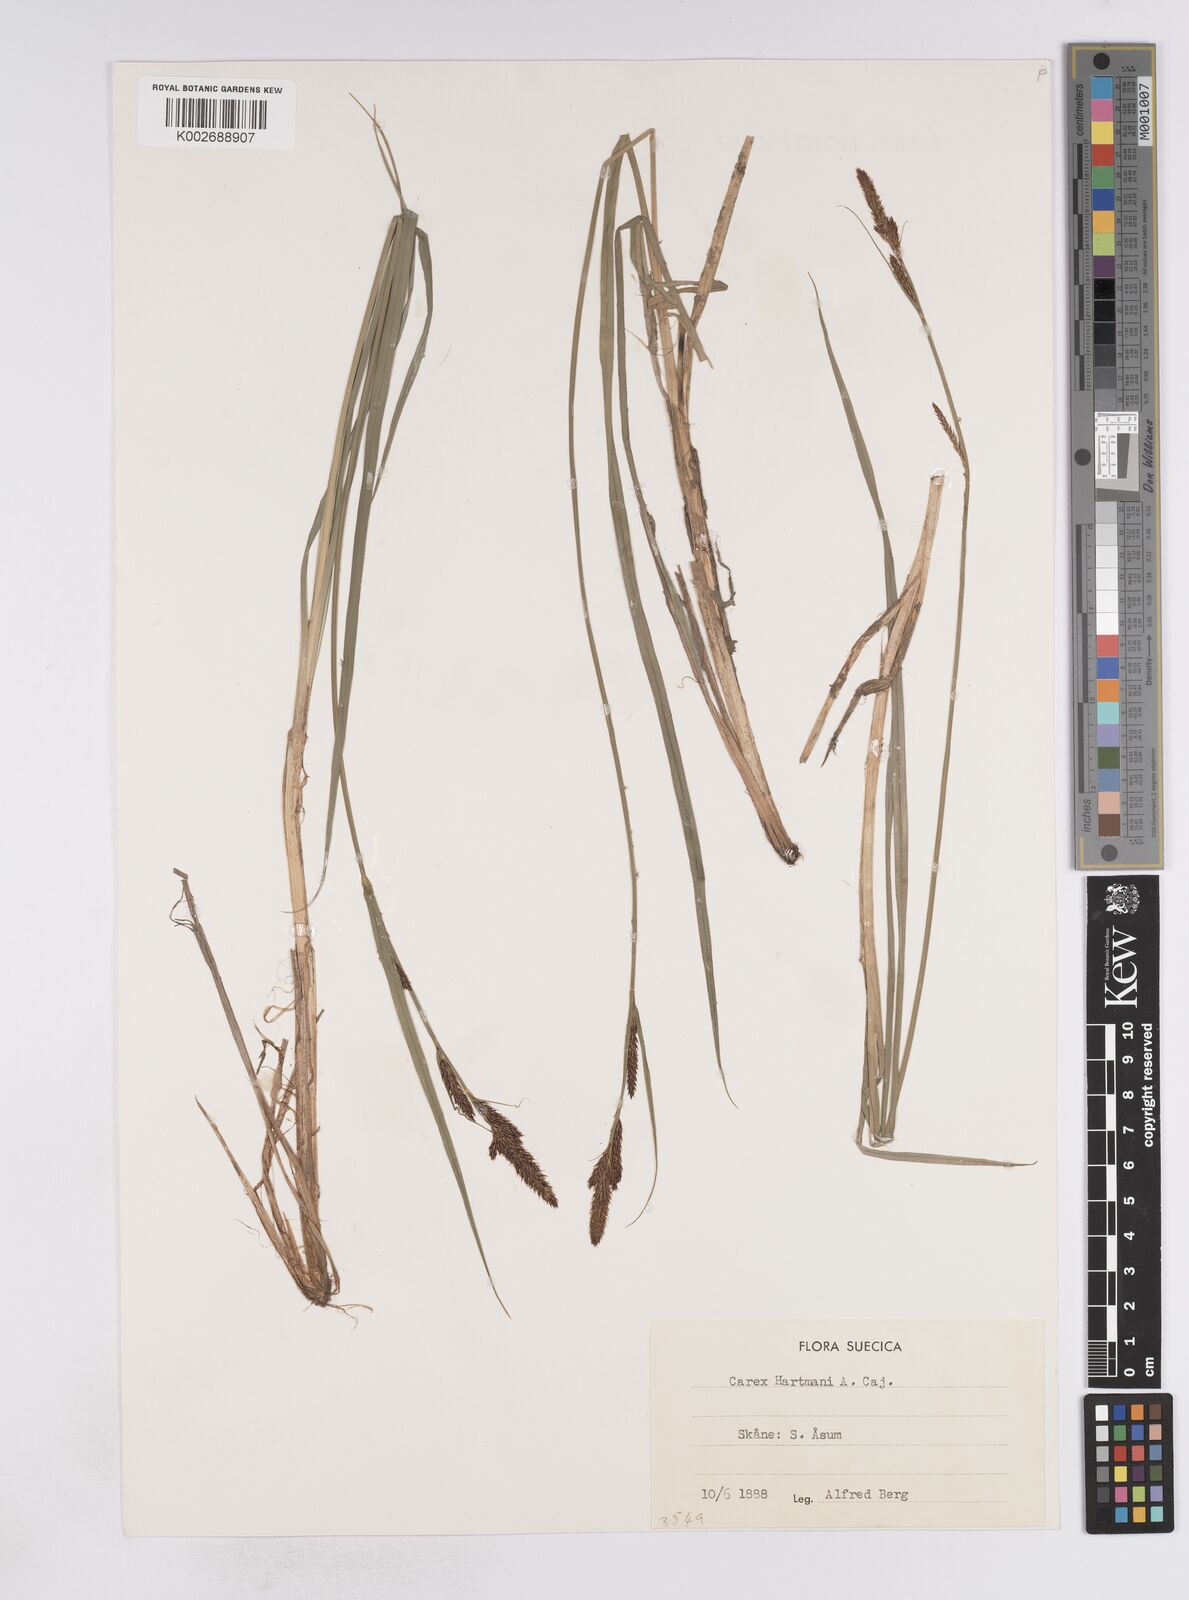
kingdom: Plantae
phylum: Tracheophyta
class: Liliopsida
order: Poales
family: Cyperaceae
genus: Carex
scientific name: Carex hartmaniorum
